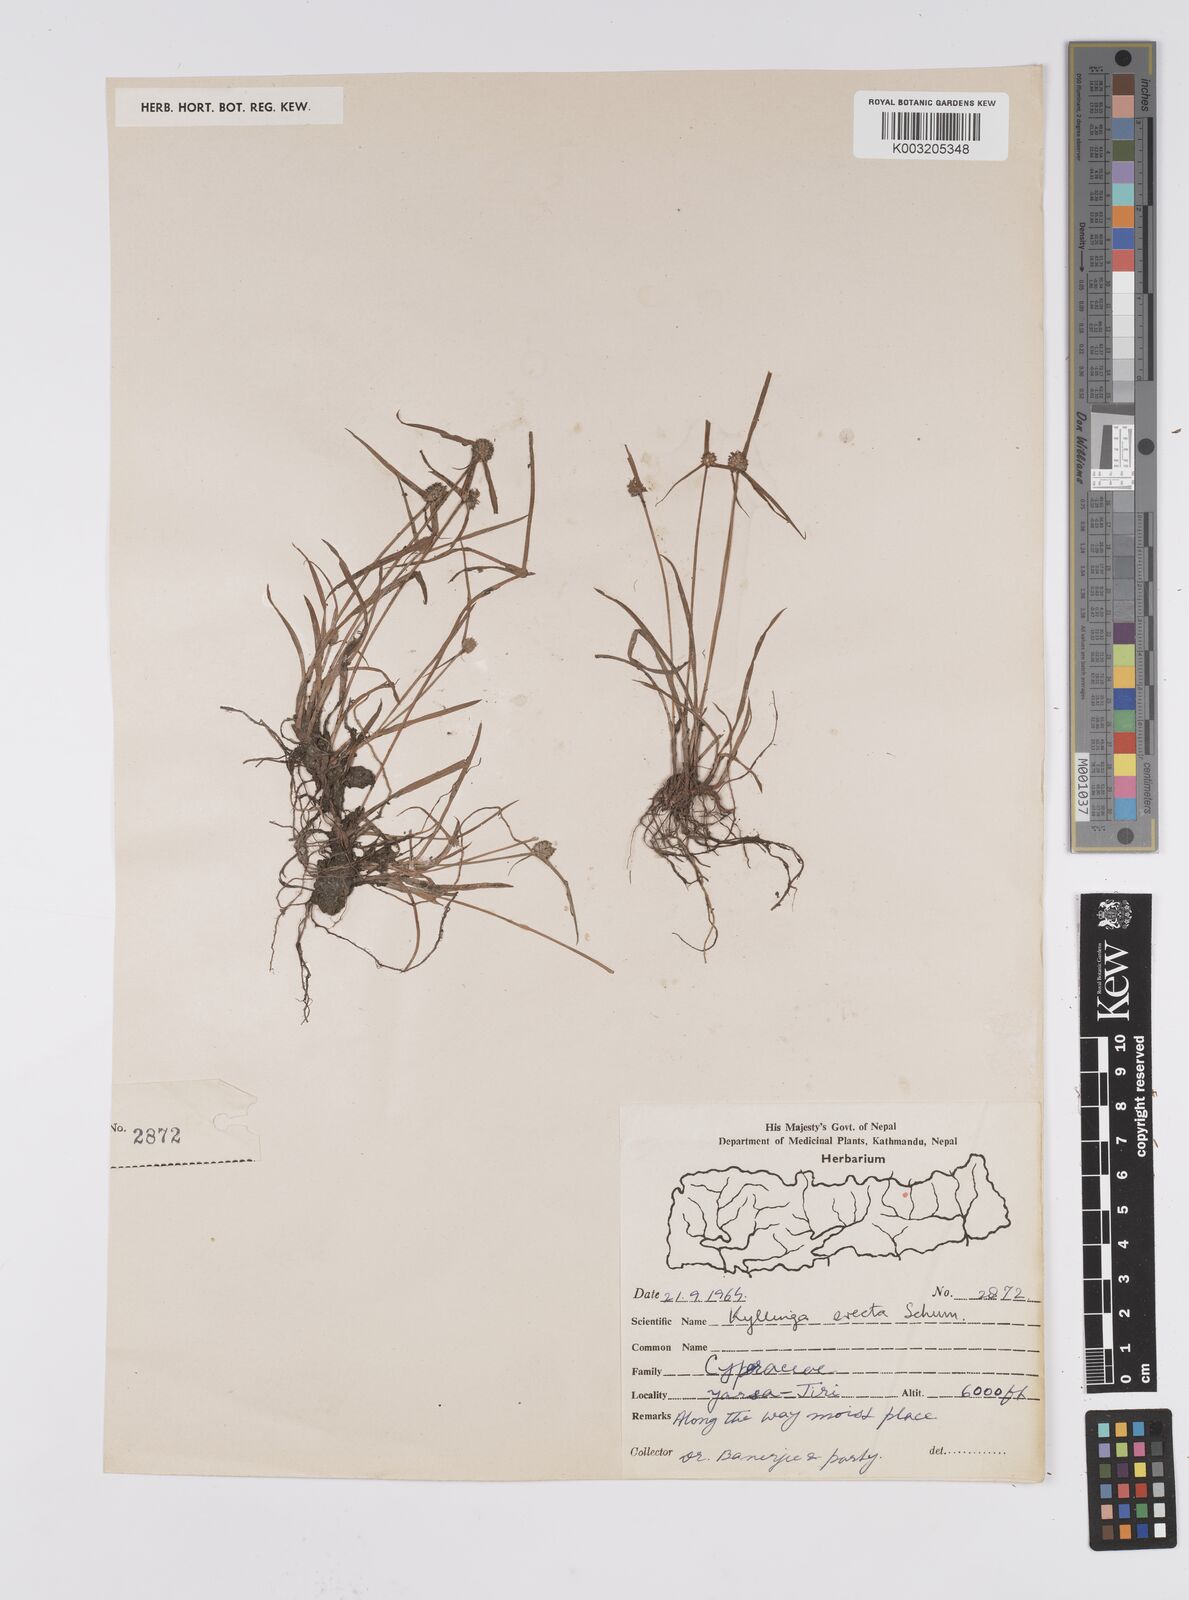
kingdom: Plantae
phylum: Tracheophyta
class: Liliopsida
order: Poales
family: Cyperaceae
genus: Cyperus
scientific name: Cyperus brevifolius
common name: Globe kyllinga
